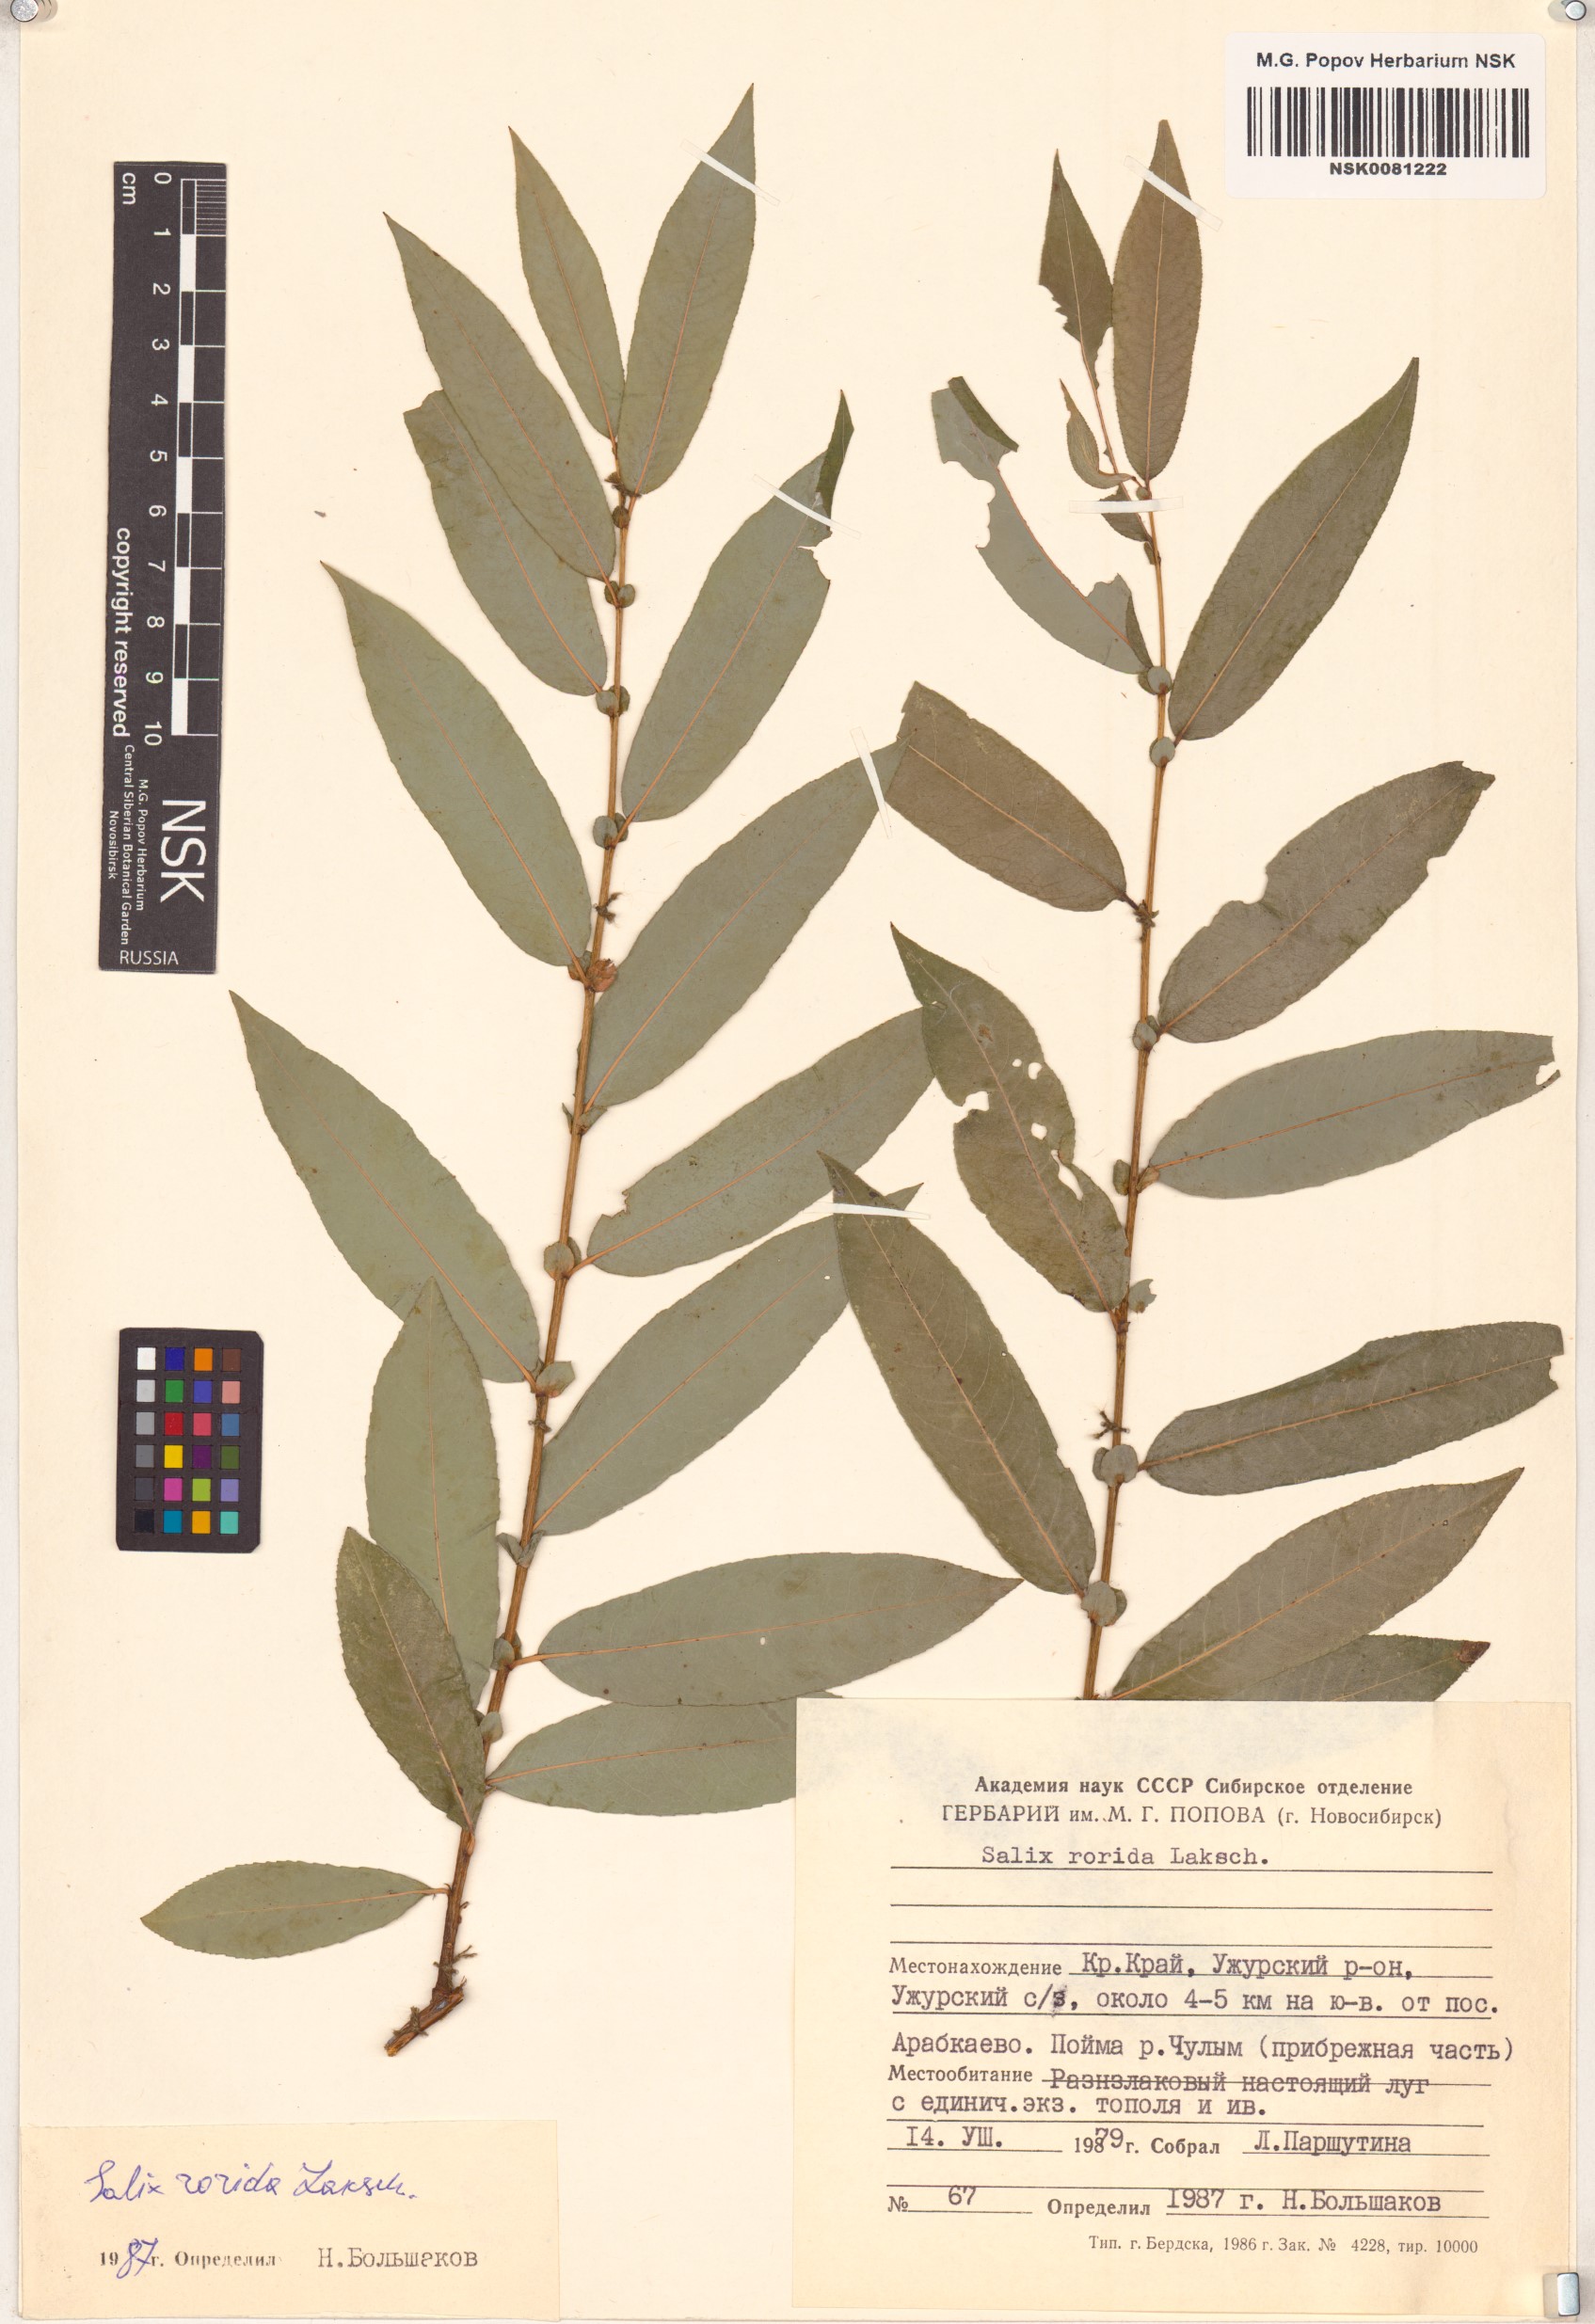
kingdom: Plantae
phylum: Tracheophyta
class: Magnoliopsida
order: Malpighiales
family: Salicaceae
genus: Salix
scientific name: Salix rorida
